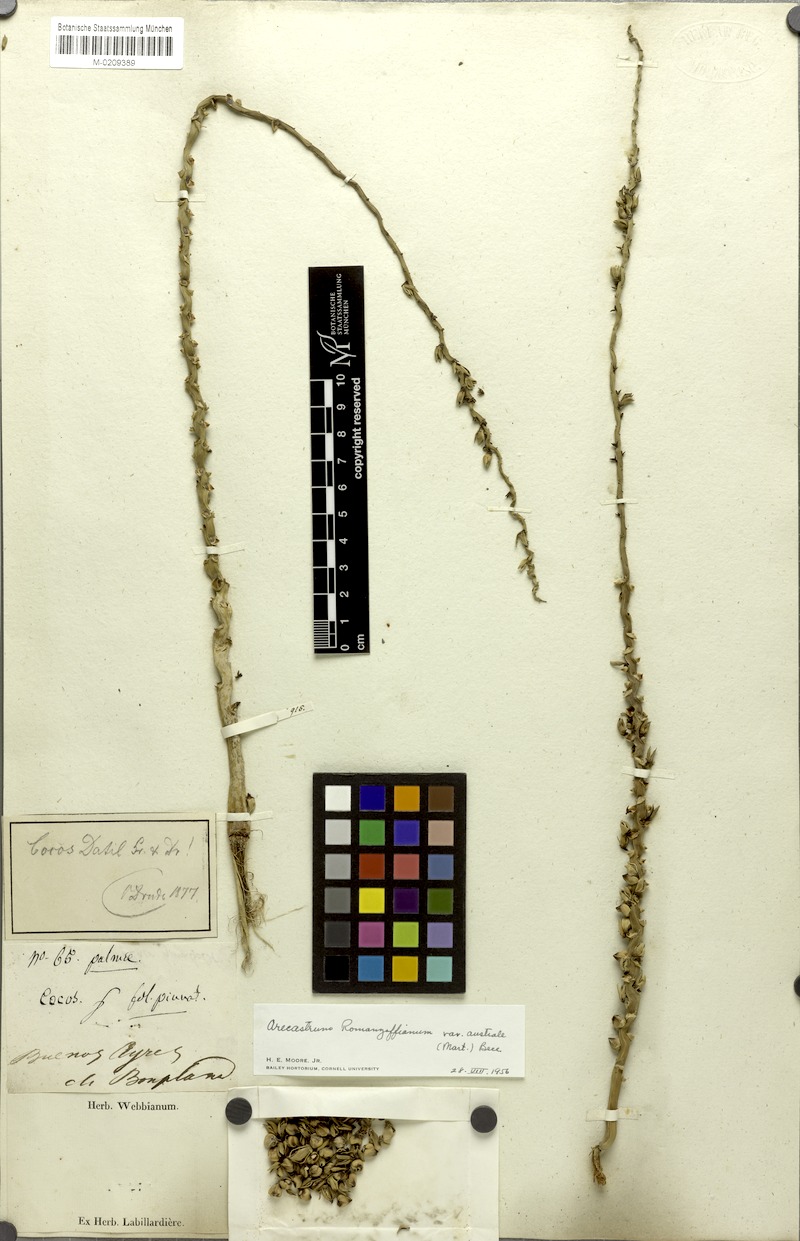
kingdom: Plantae
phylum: Tracheophyta
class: Liliopsida
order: Arecales
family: Arecaceae
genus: Syagrus
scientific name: Syagrus romanzoffiana
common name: Queen palm
